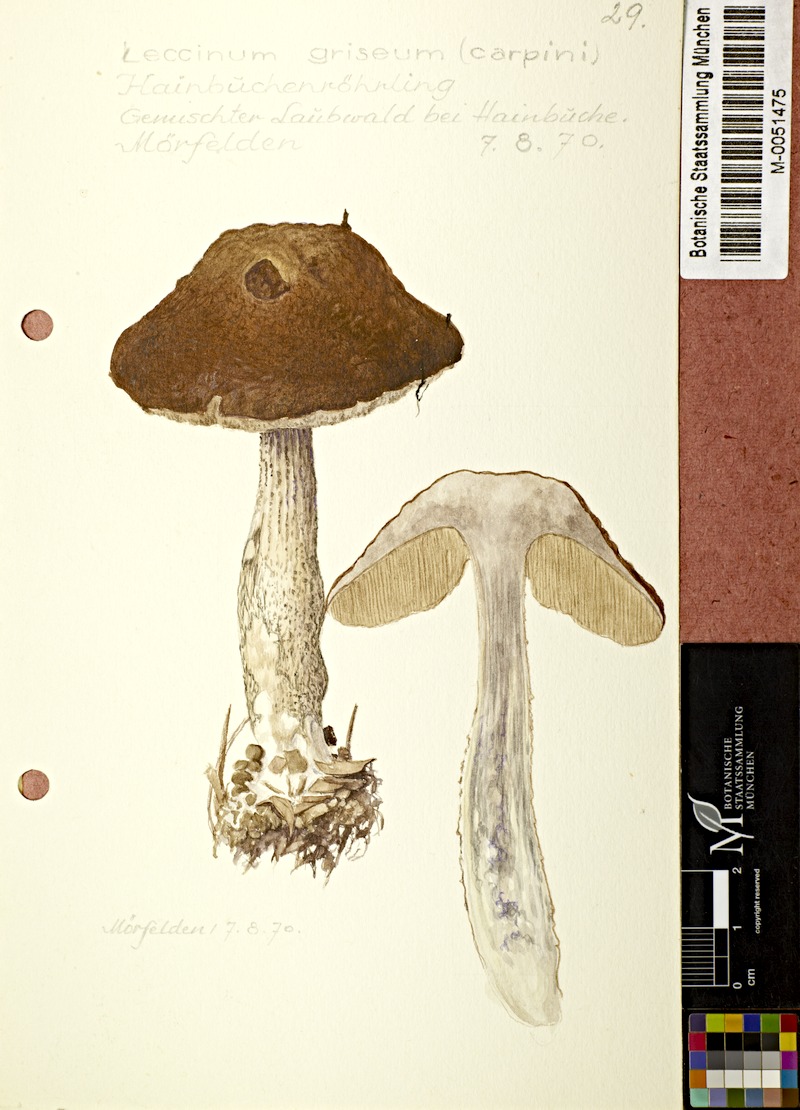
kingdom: Fungi
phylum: Basidiomycota
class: Agaricomycetes
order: Boletales
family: Boletaceae
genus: Leccinellum
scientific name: Leccinellum pseudoscabrum
